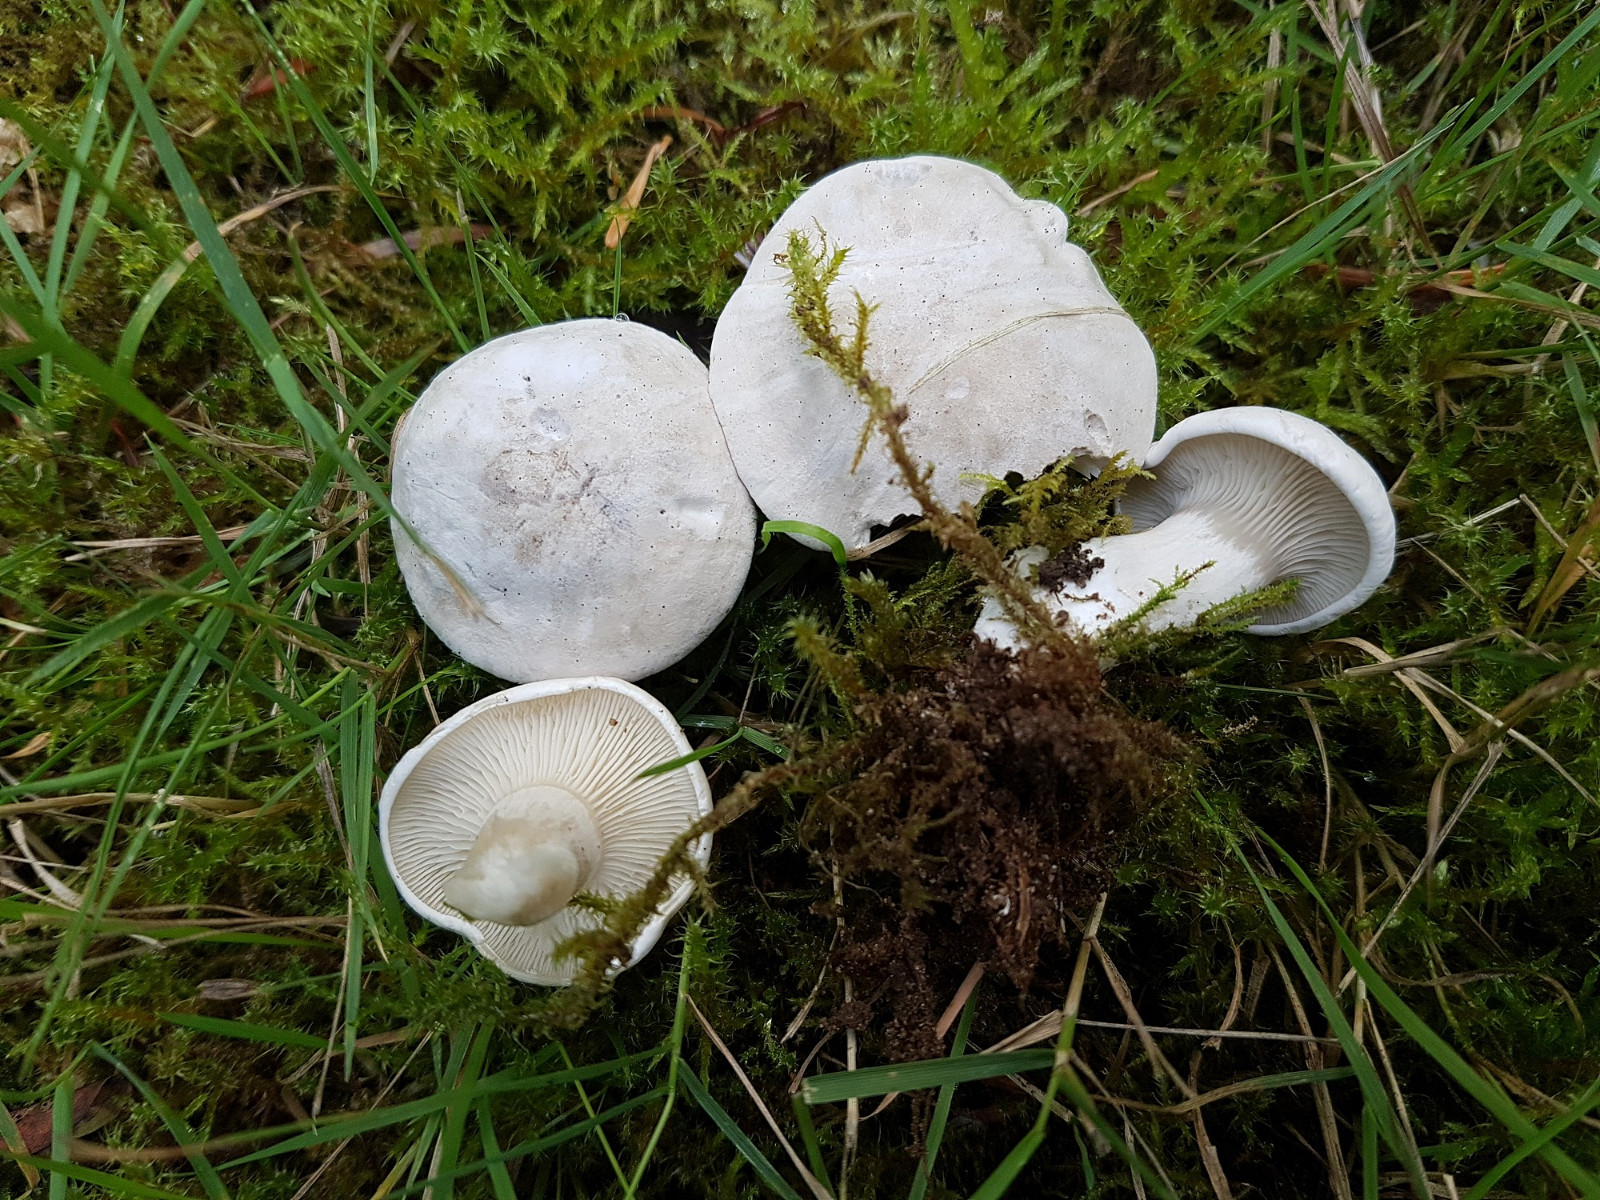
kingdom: Fungi
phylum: Basidiomycota
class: Agaricomycetes
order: Agaricales
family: Entolomataceae
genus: Clitopilus
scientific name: Clitopilus prunulus
